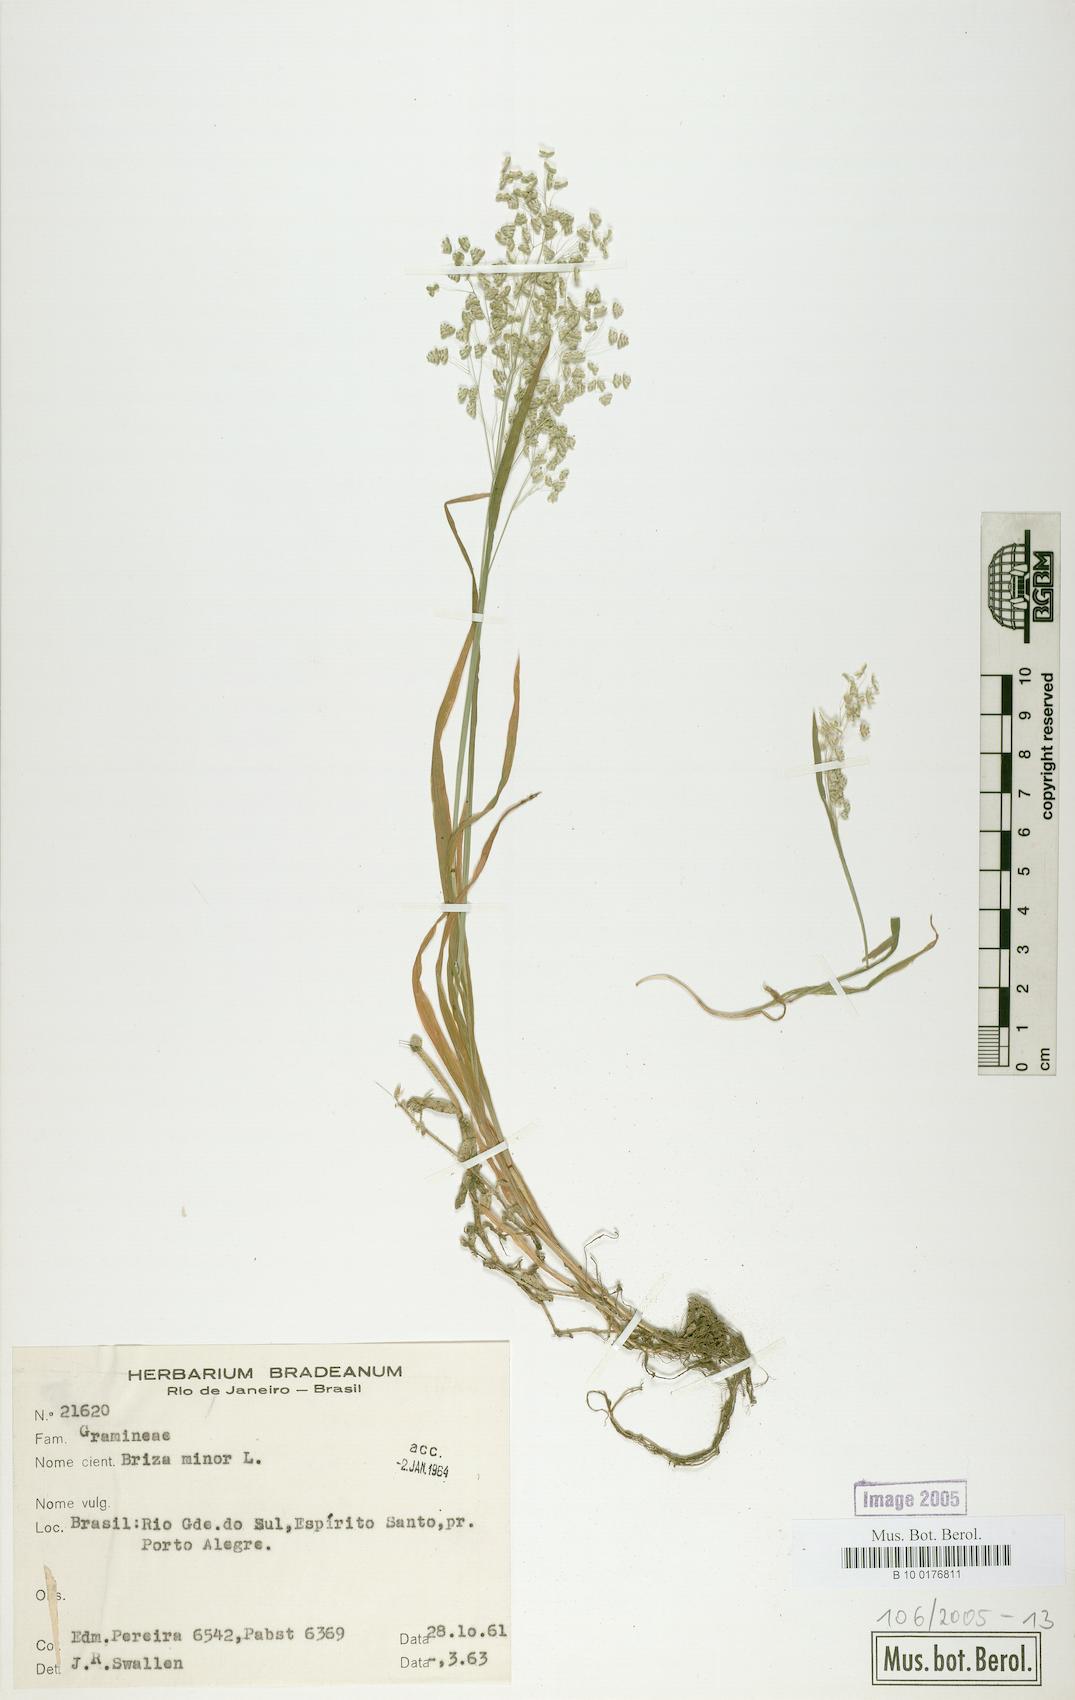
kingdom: Plantae
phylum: Tracheophyta
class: Liliopsida
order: Poales
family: Poaceae
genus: Briza
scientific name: Briza minor
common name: Lesser quaking-grass
